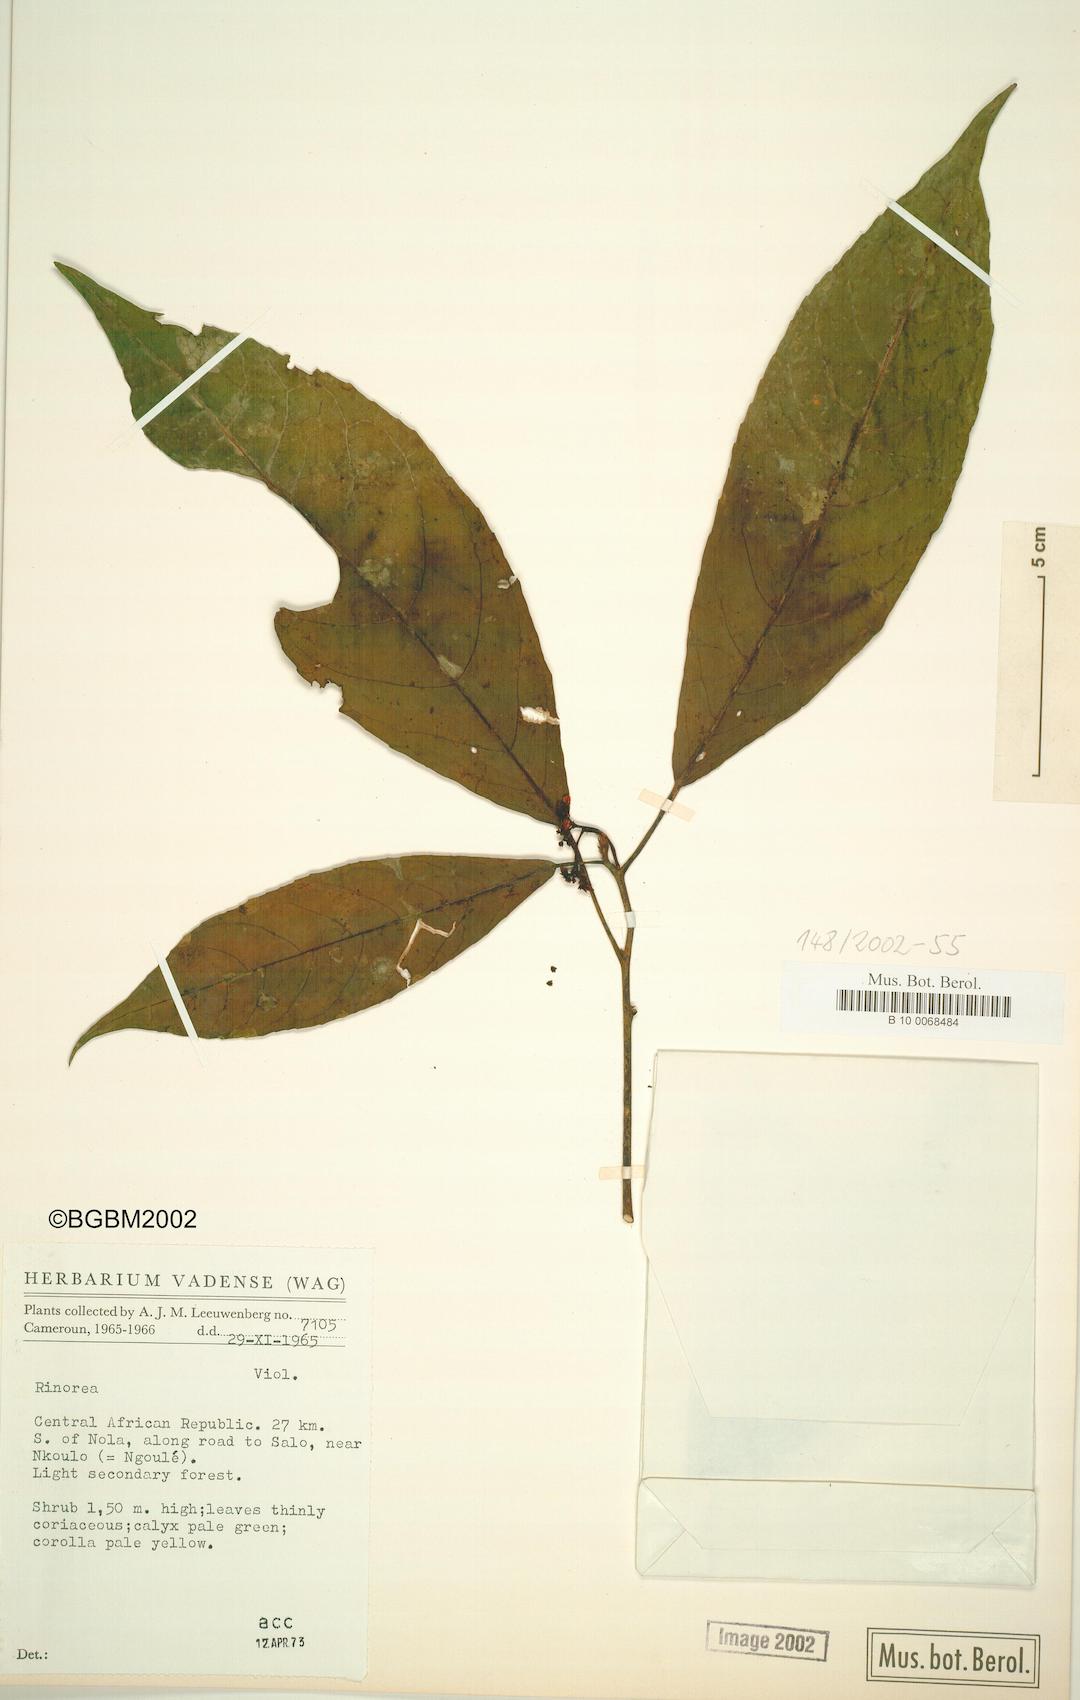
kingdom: Plantae
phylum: Tracheophyta
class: Magnoliopsida
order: Malpighiales
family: Violaceae
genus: Rinorea
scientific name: Rinorea
